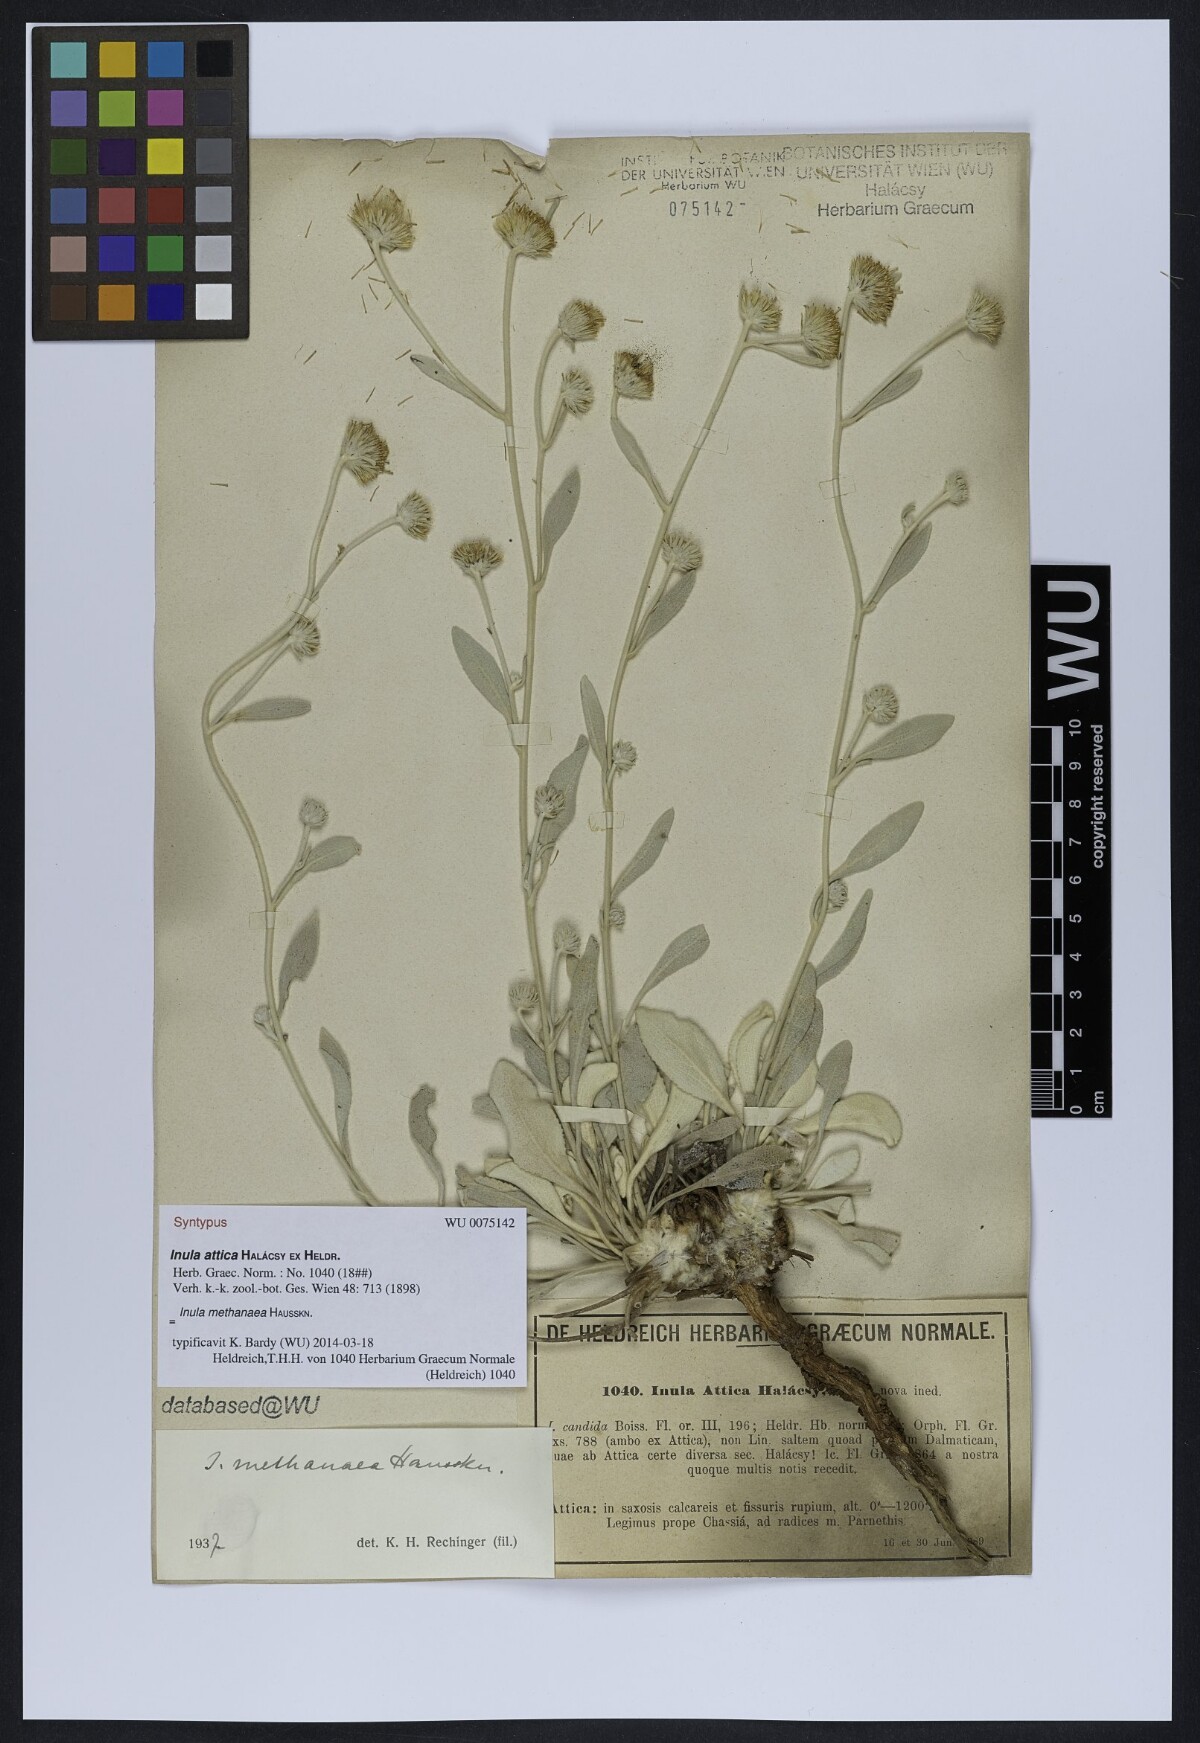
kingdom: Plantae
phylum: Tracheophyta
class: Magnoliopsida
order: Asterales
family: Asteraceae
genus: Pentanema
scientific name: Pentanema verbascifolium
